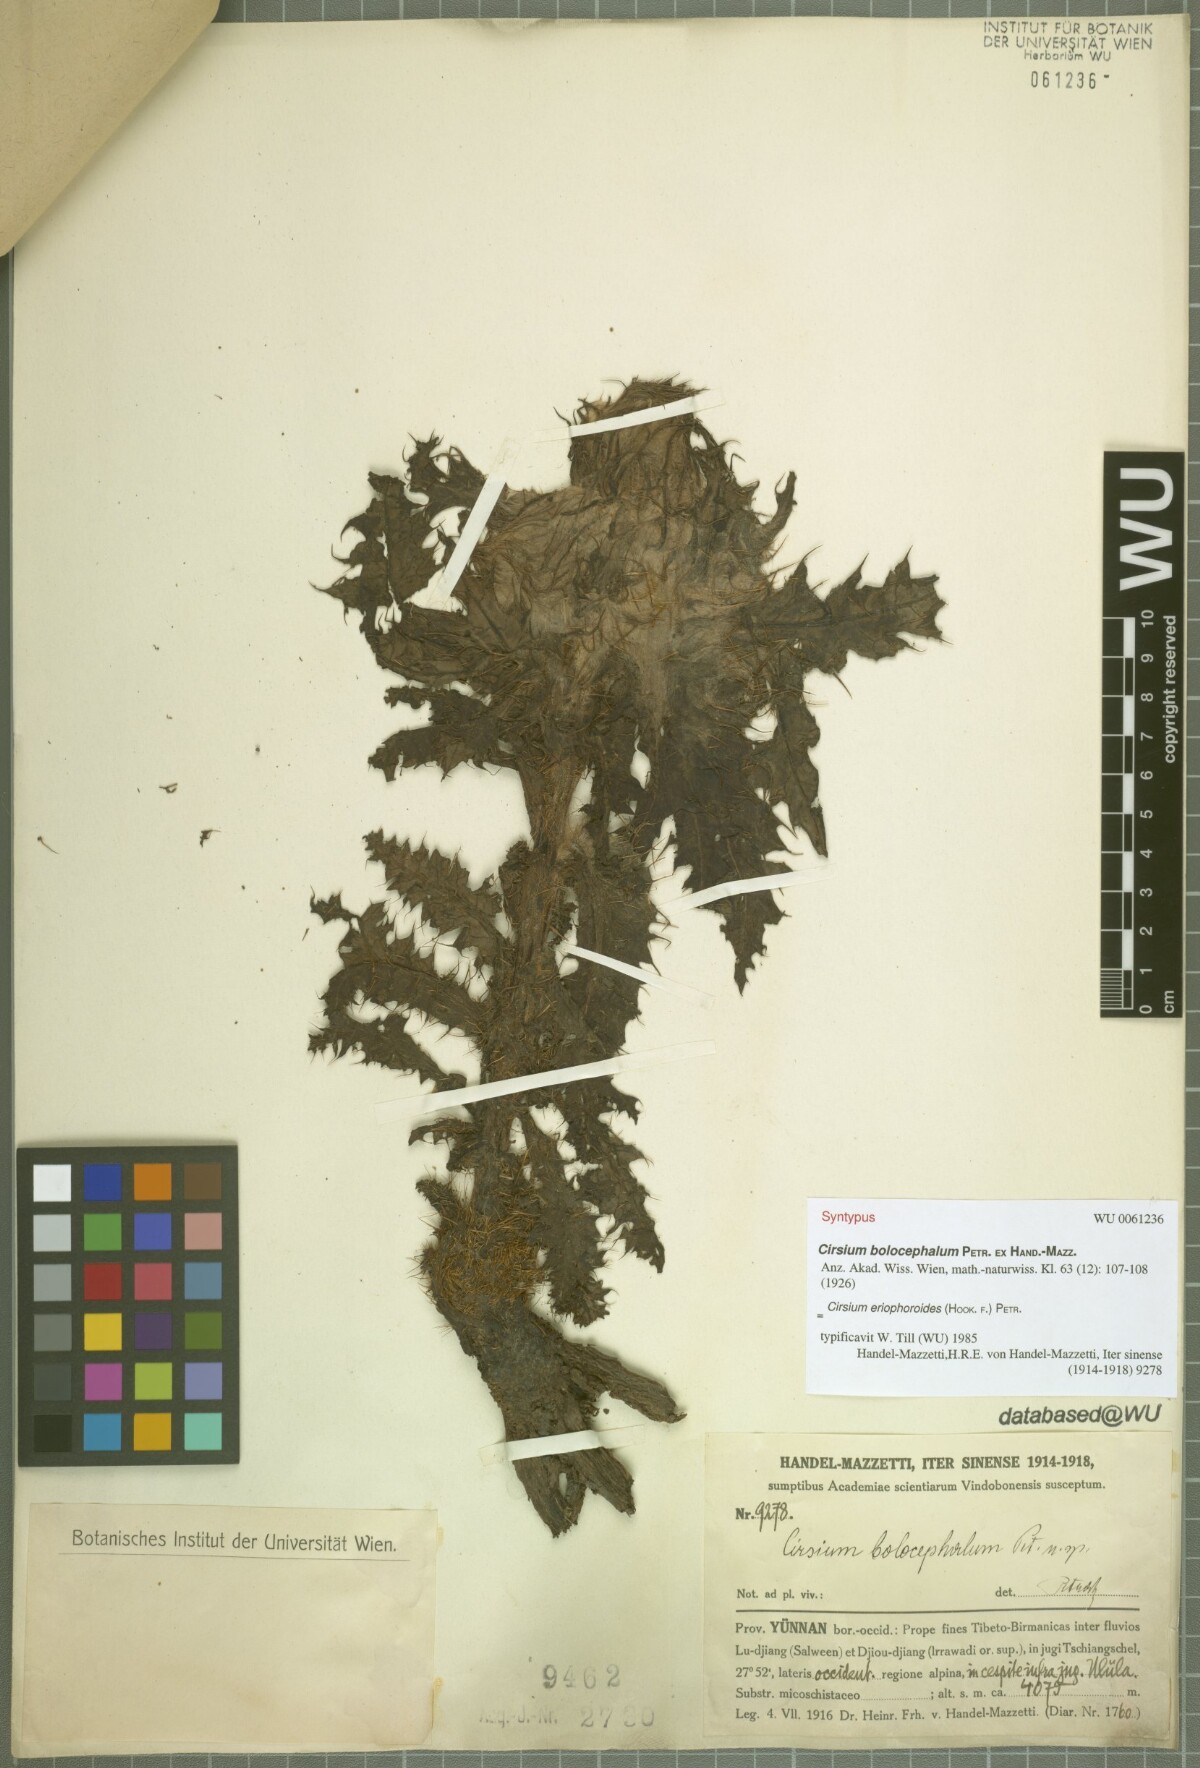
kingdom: Plantae
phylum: Tracheophyta
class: Magnoliopsida
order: Asterales
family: Asteraceae
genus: Cirsium
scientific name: Cirsium eriophoroides
